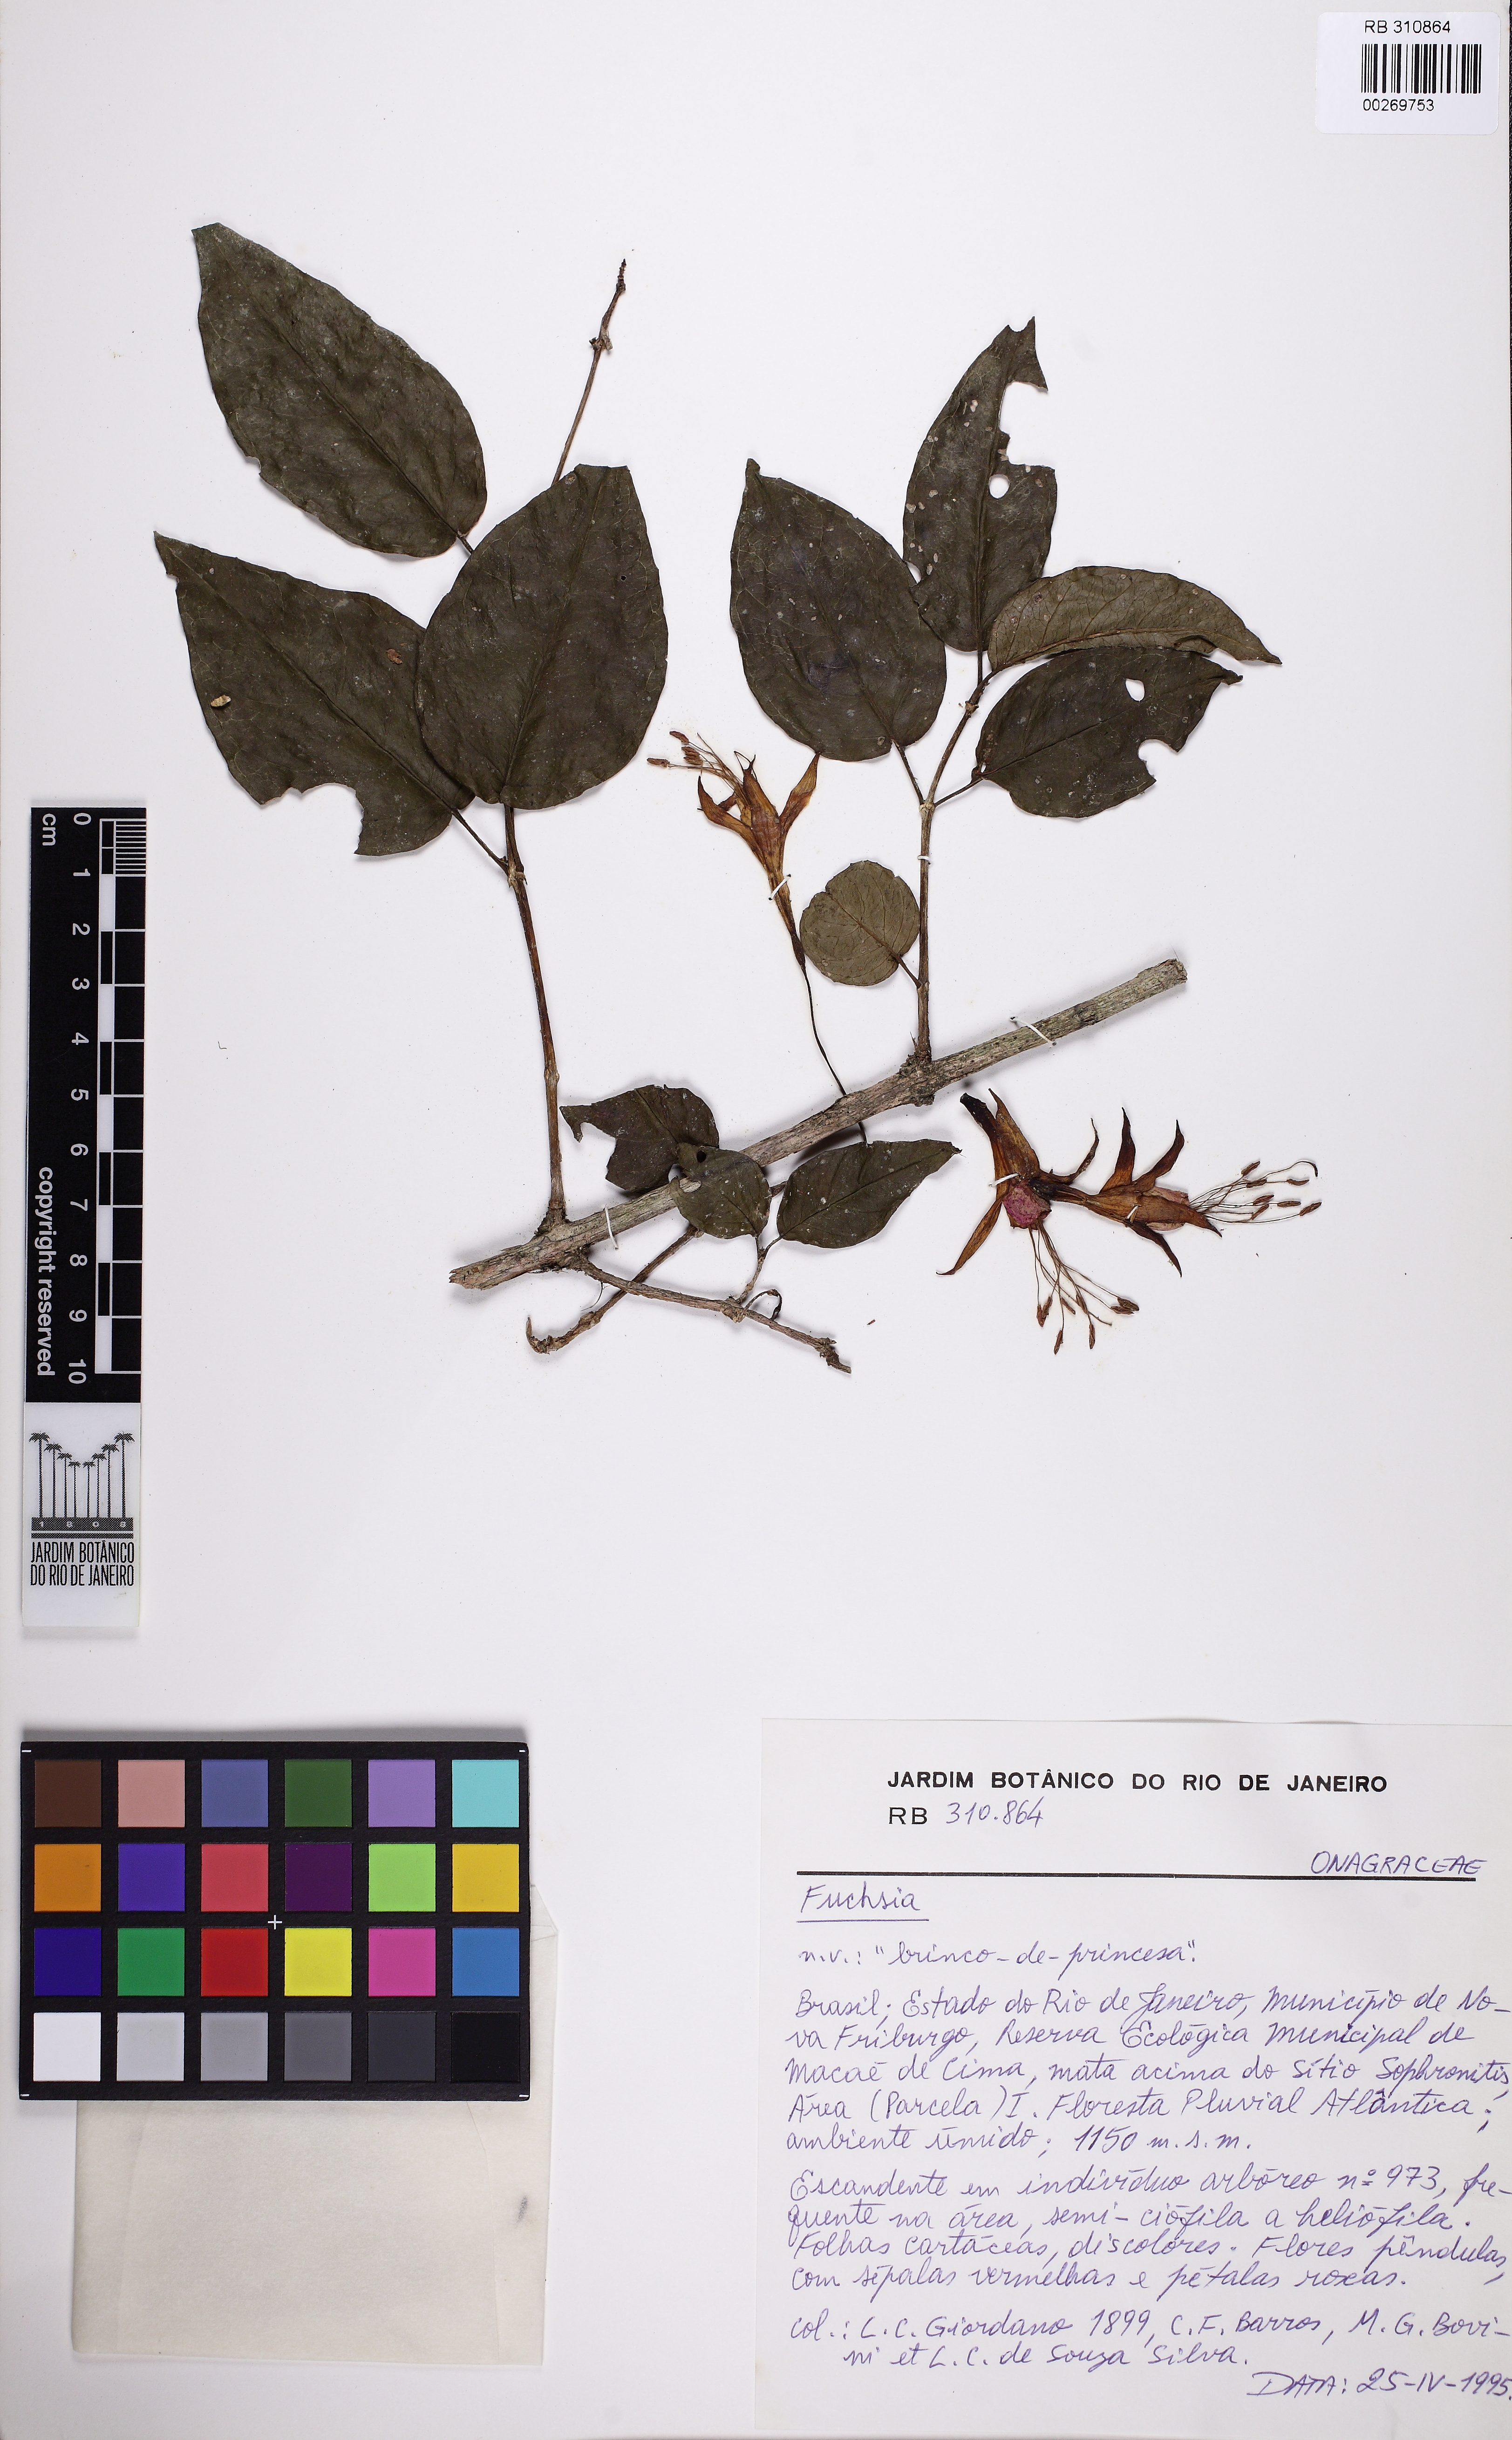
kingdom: Plantae
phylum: Tracheophyta
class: Magnoliopsida
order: Myrtales
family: Onagraceae
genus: Fuchsia
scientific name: Fuchsia regia
